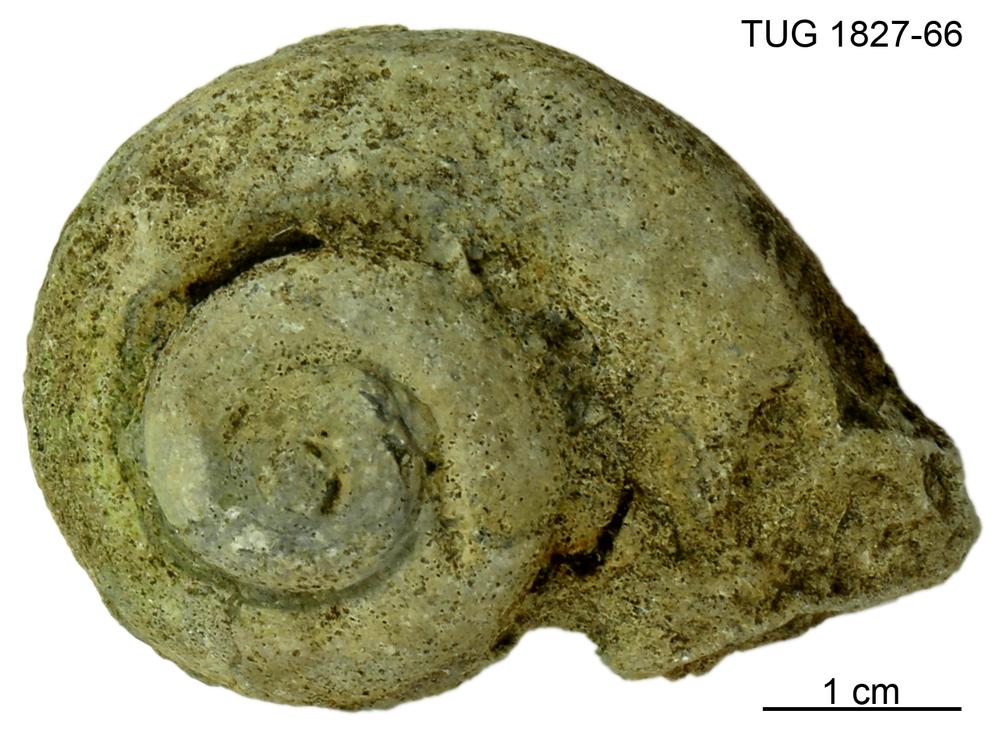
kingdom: Animalia
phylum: Mollusca
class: Gastropoda
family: Helicotomidae
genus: Boucotspira
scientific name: Boucotspira Euomphalus carinifer
